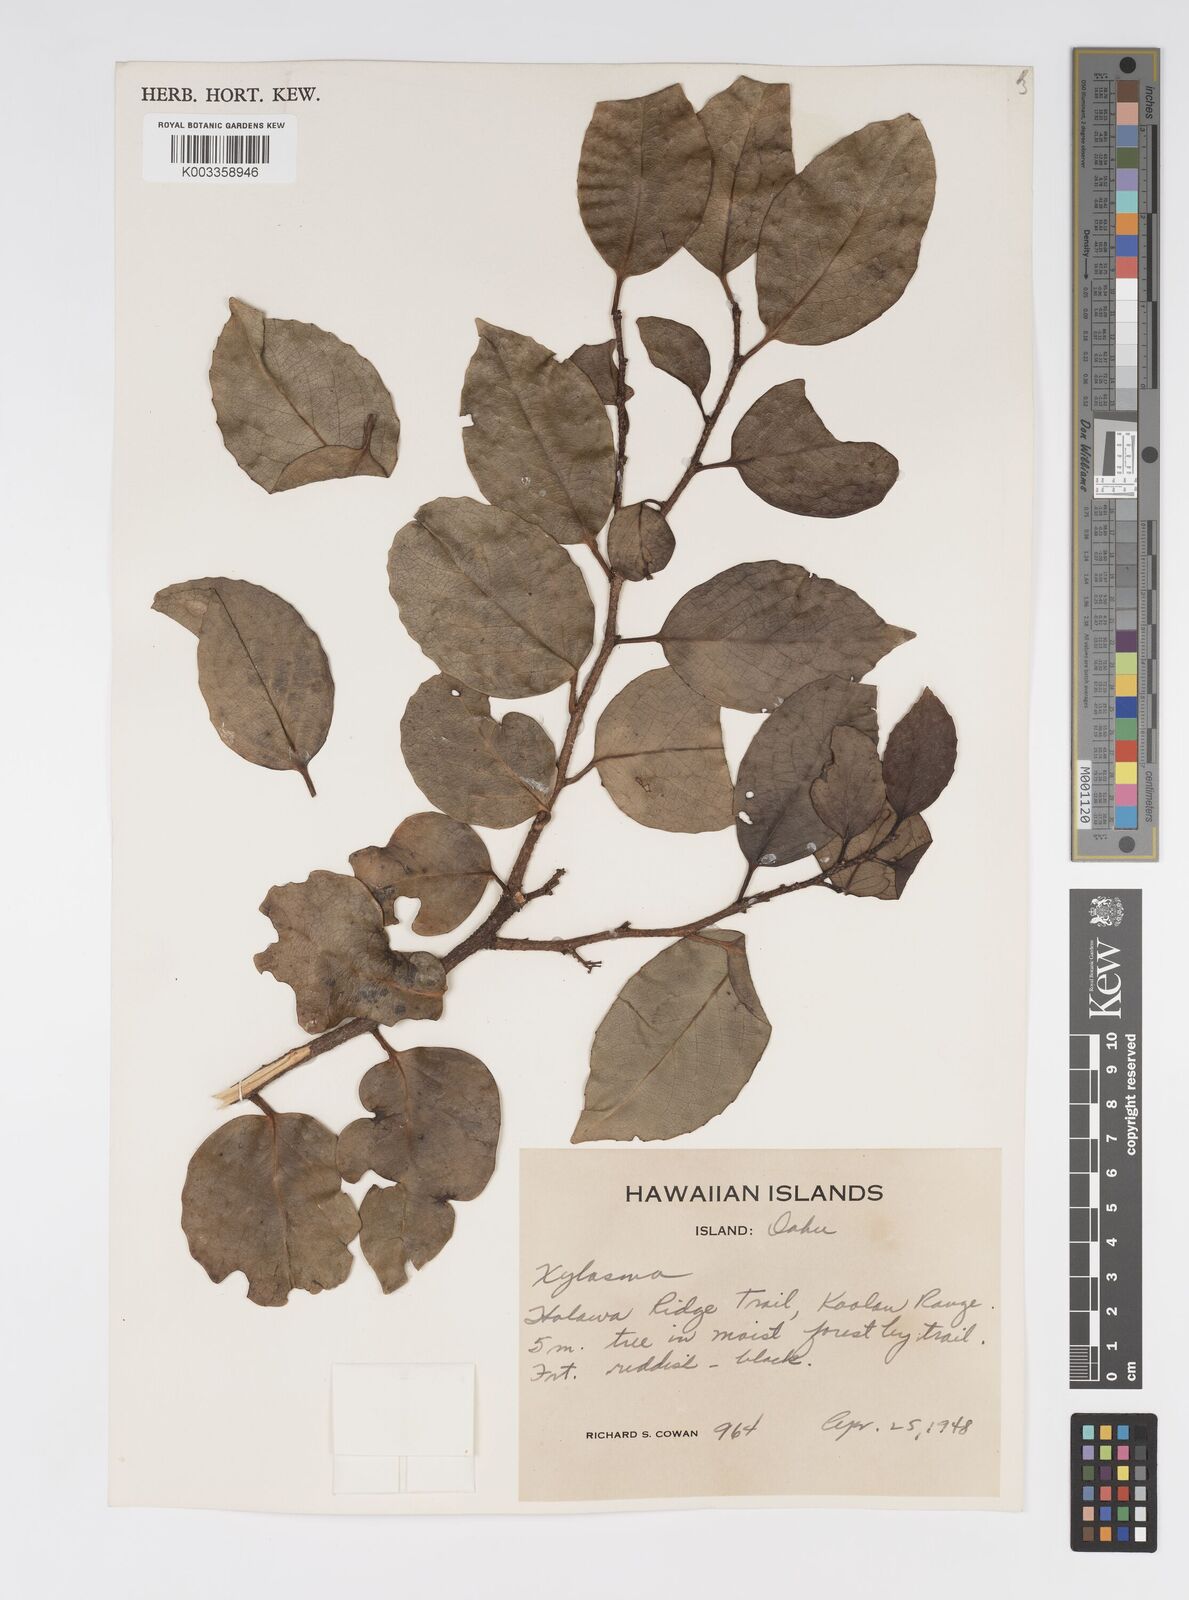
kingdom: Plantae
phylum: Tracheophyta
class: Magnoliopsida
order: Malpighiales
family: Salicaceae
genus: Xylosma
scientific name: Xylosma hawaiense
